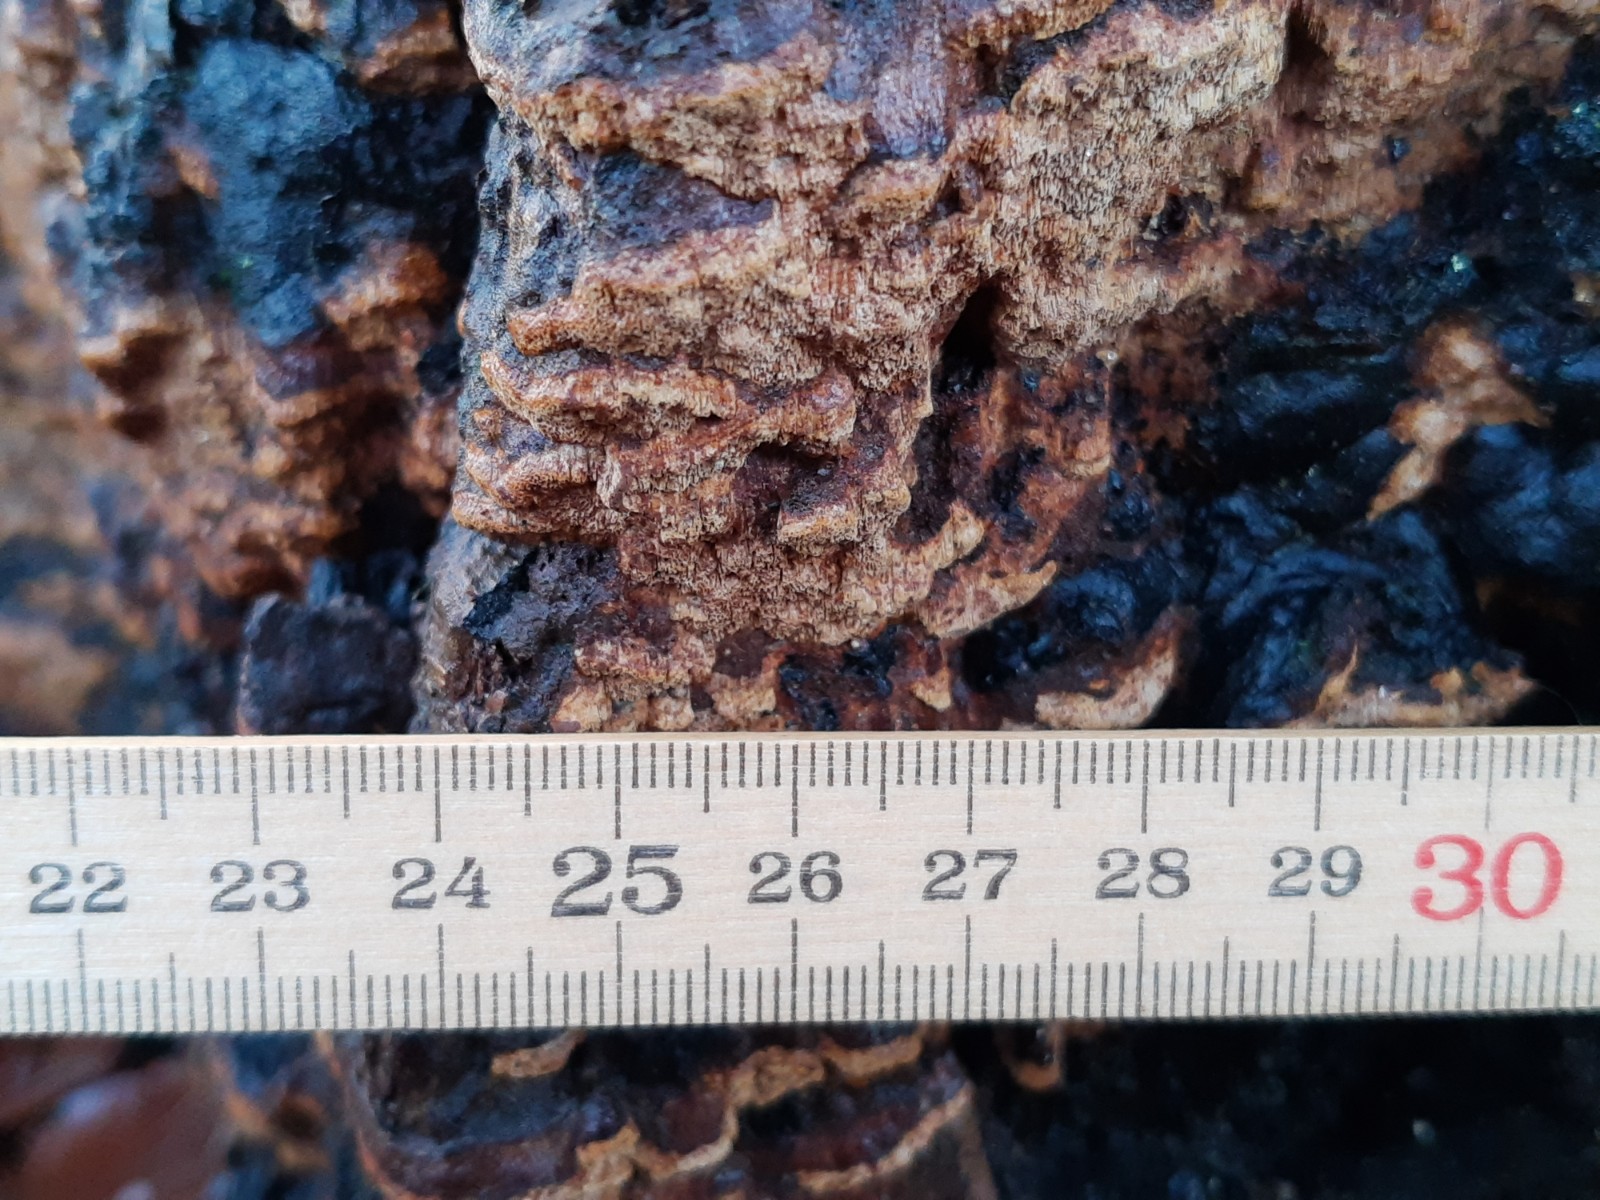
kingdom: Fungi
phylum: Basidiomycota
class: Agaricomycetes
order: Hymenochaetales
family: Hymenochaetaceae
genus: Fuscoporia
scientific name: Fuscoporia ferrea
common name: skorpe-ildporesvamp
